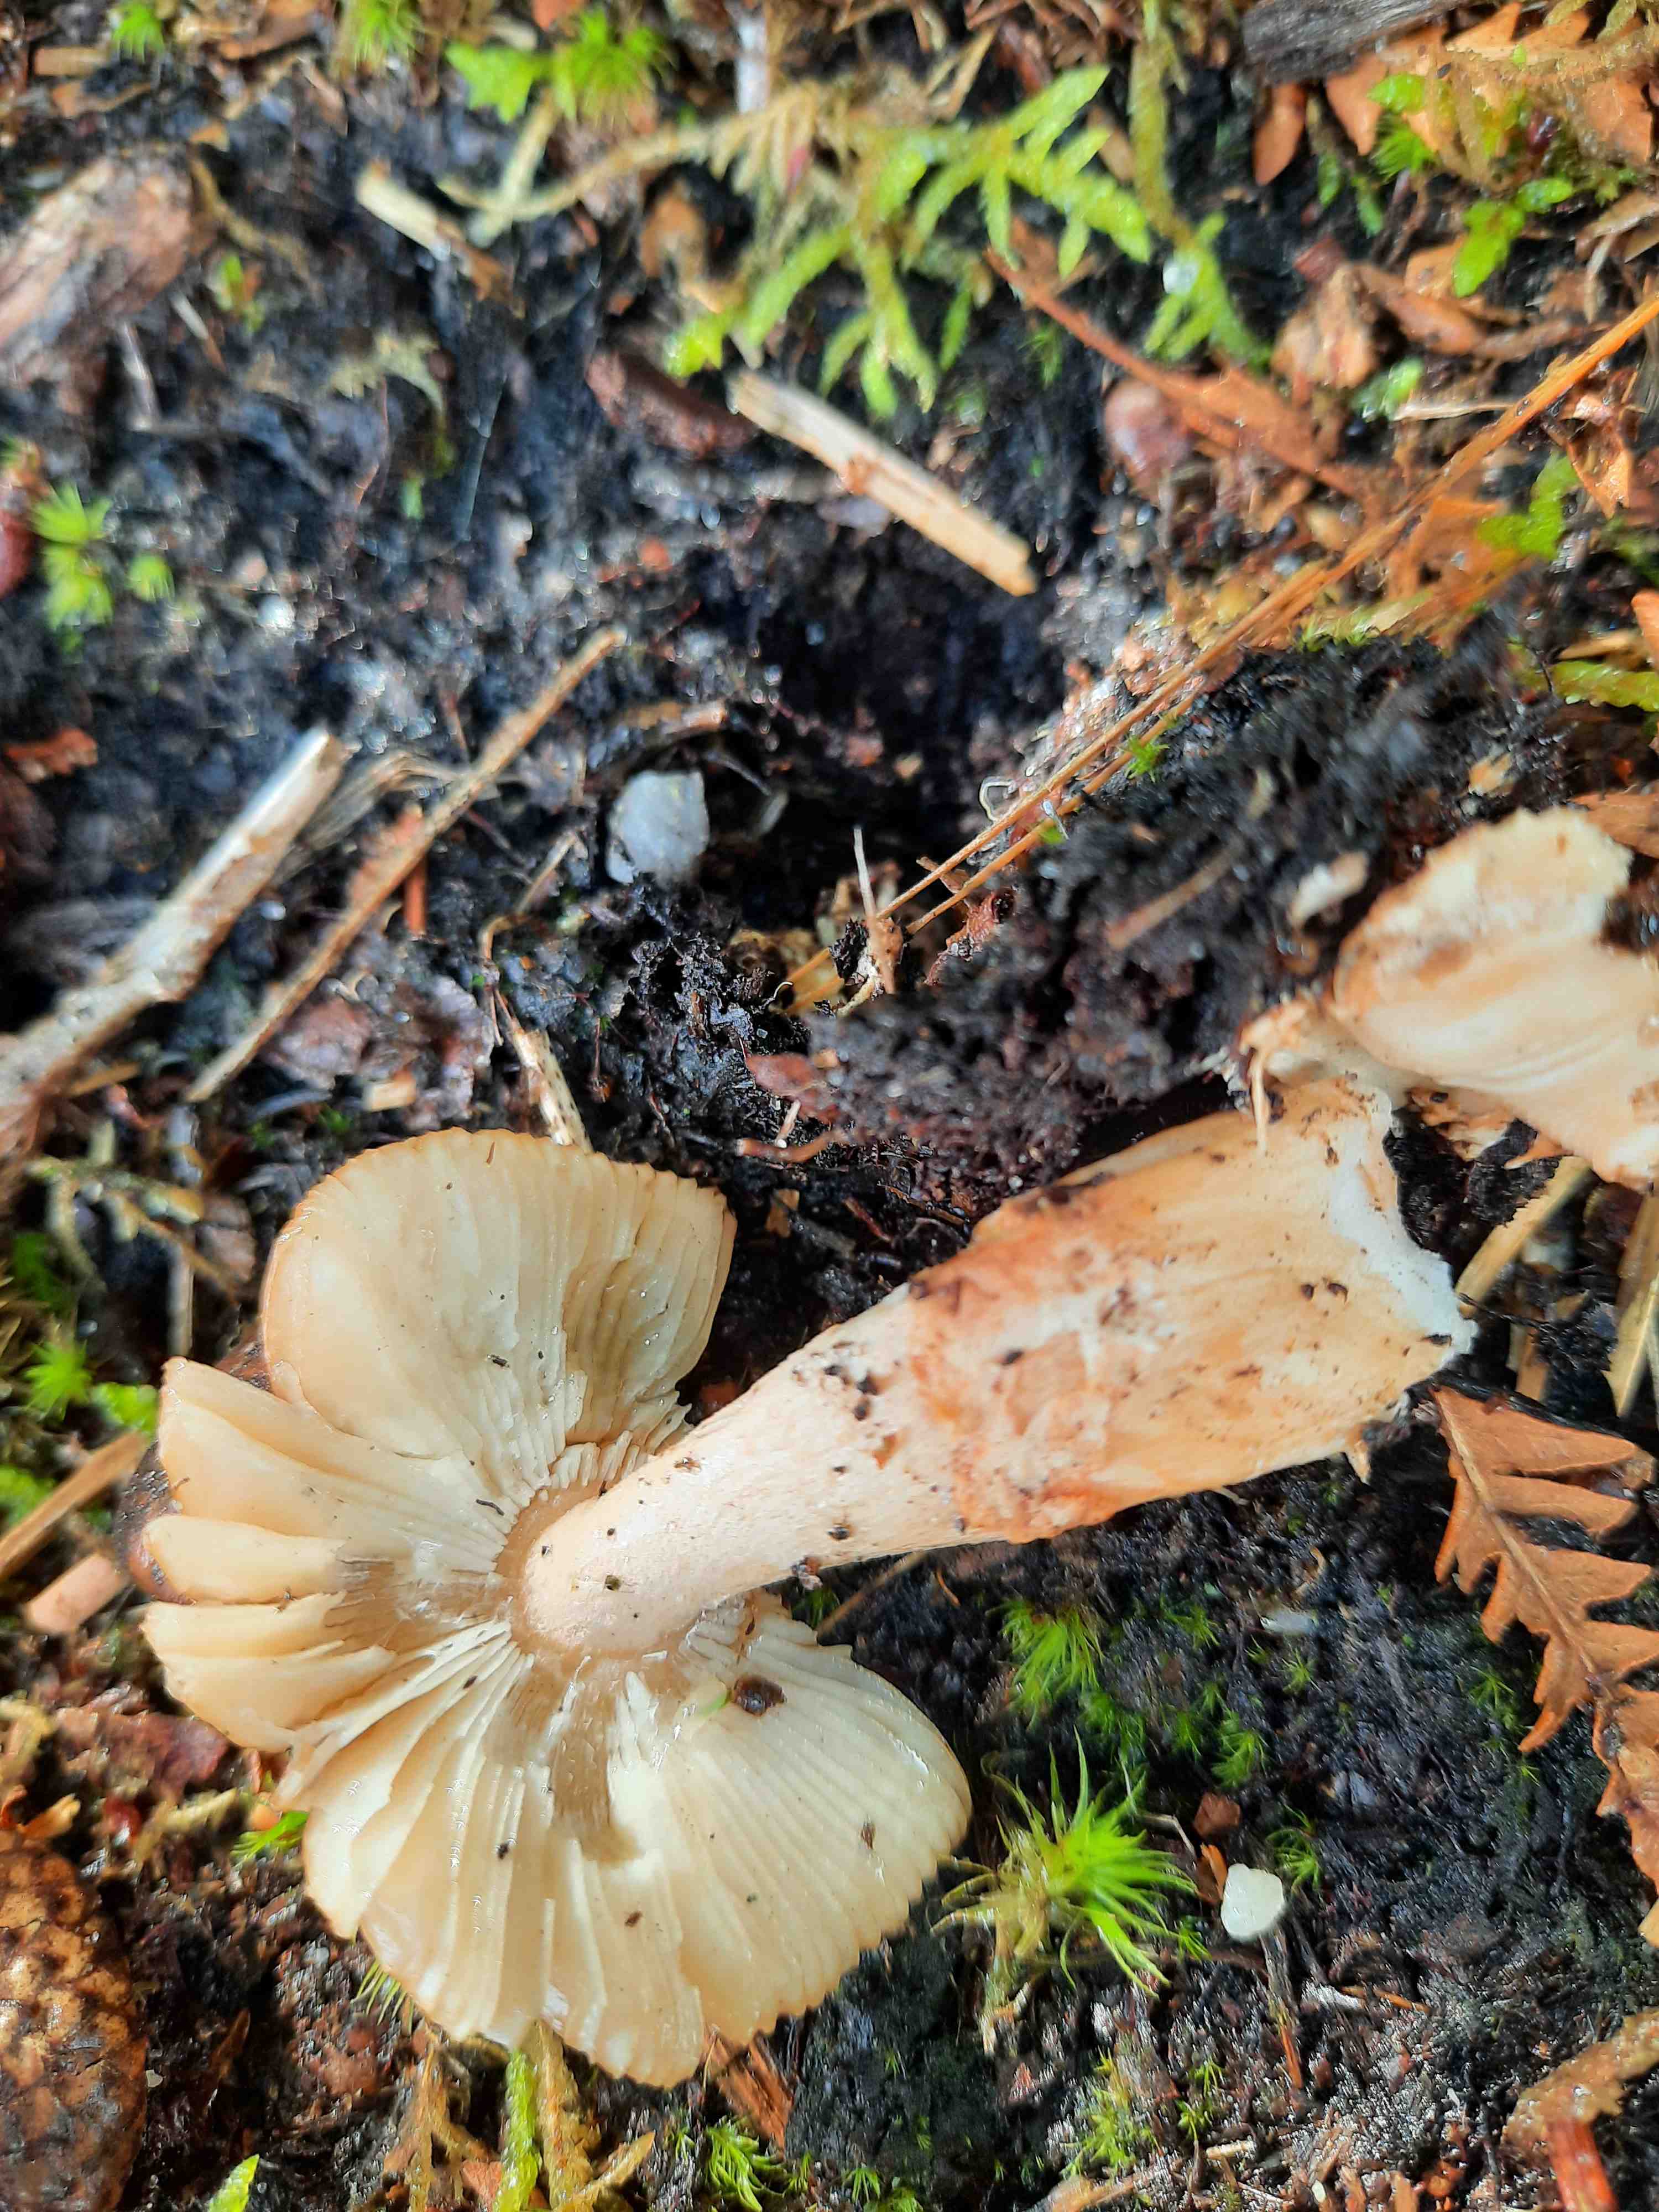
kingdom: Fungi
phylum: Basidiomycota
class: Agaricomycetes
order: Agaricales
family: Amanitaceae
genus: Amanita
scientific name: Amanita fulva
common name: brun kam-fluesvamp
